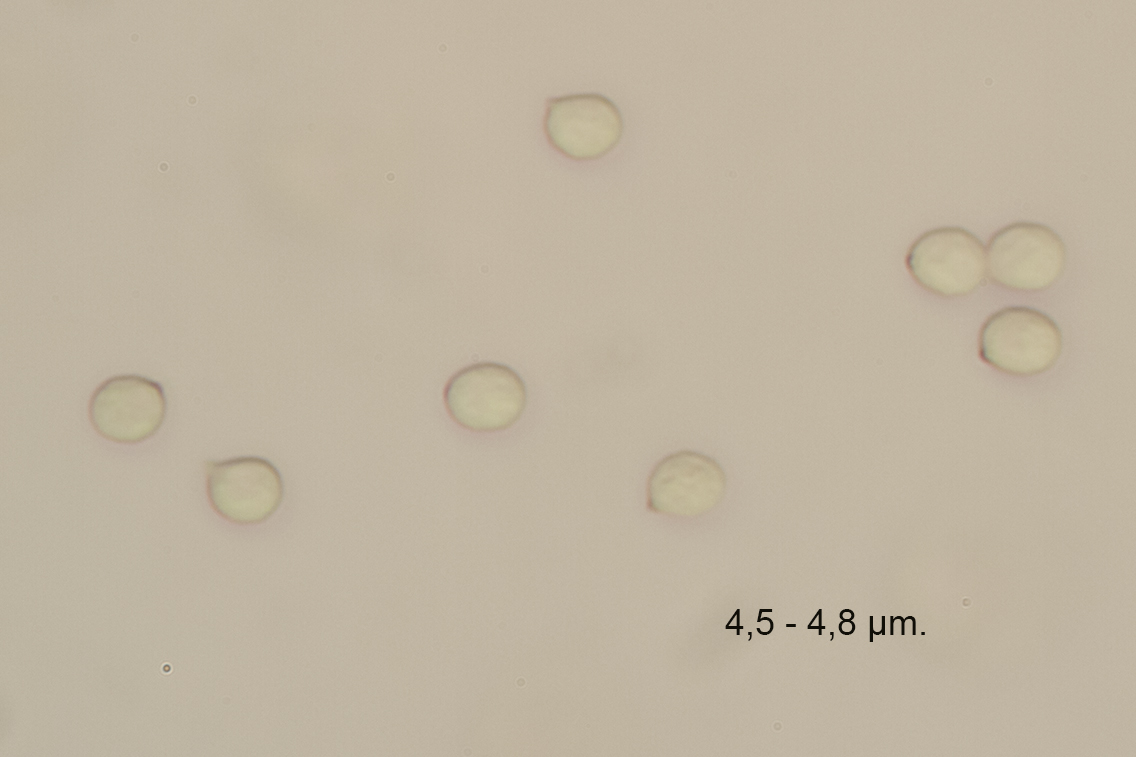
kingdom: Fungi
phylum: Basidiomycota
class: Agaricomycetes
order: Agaricales
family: Tricholomataceae
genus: Lulesia
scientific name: Lulesia
